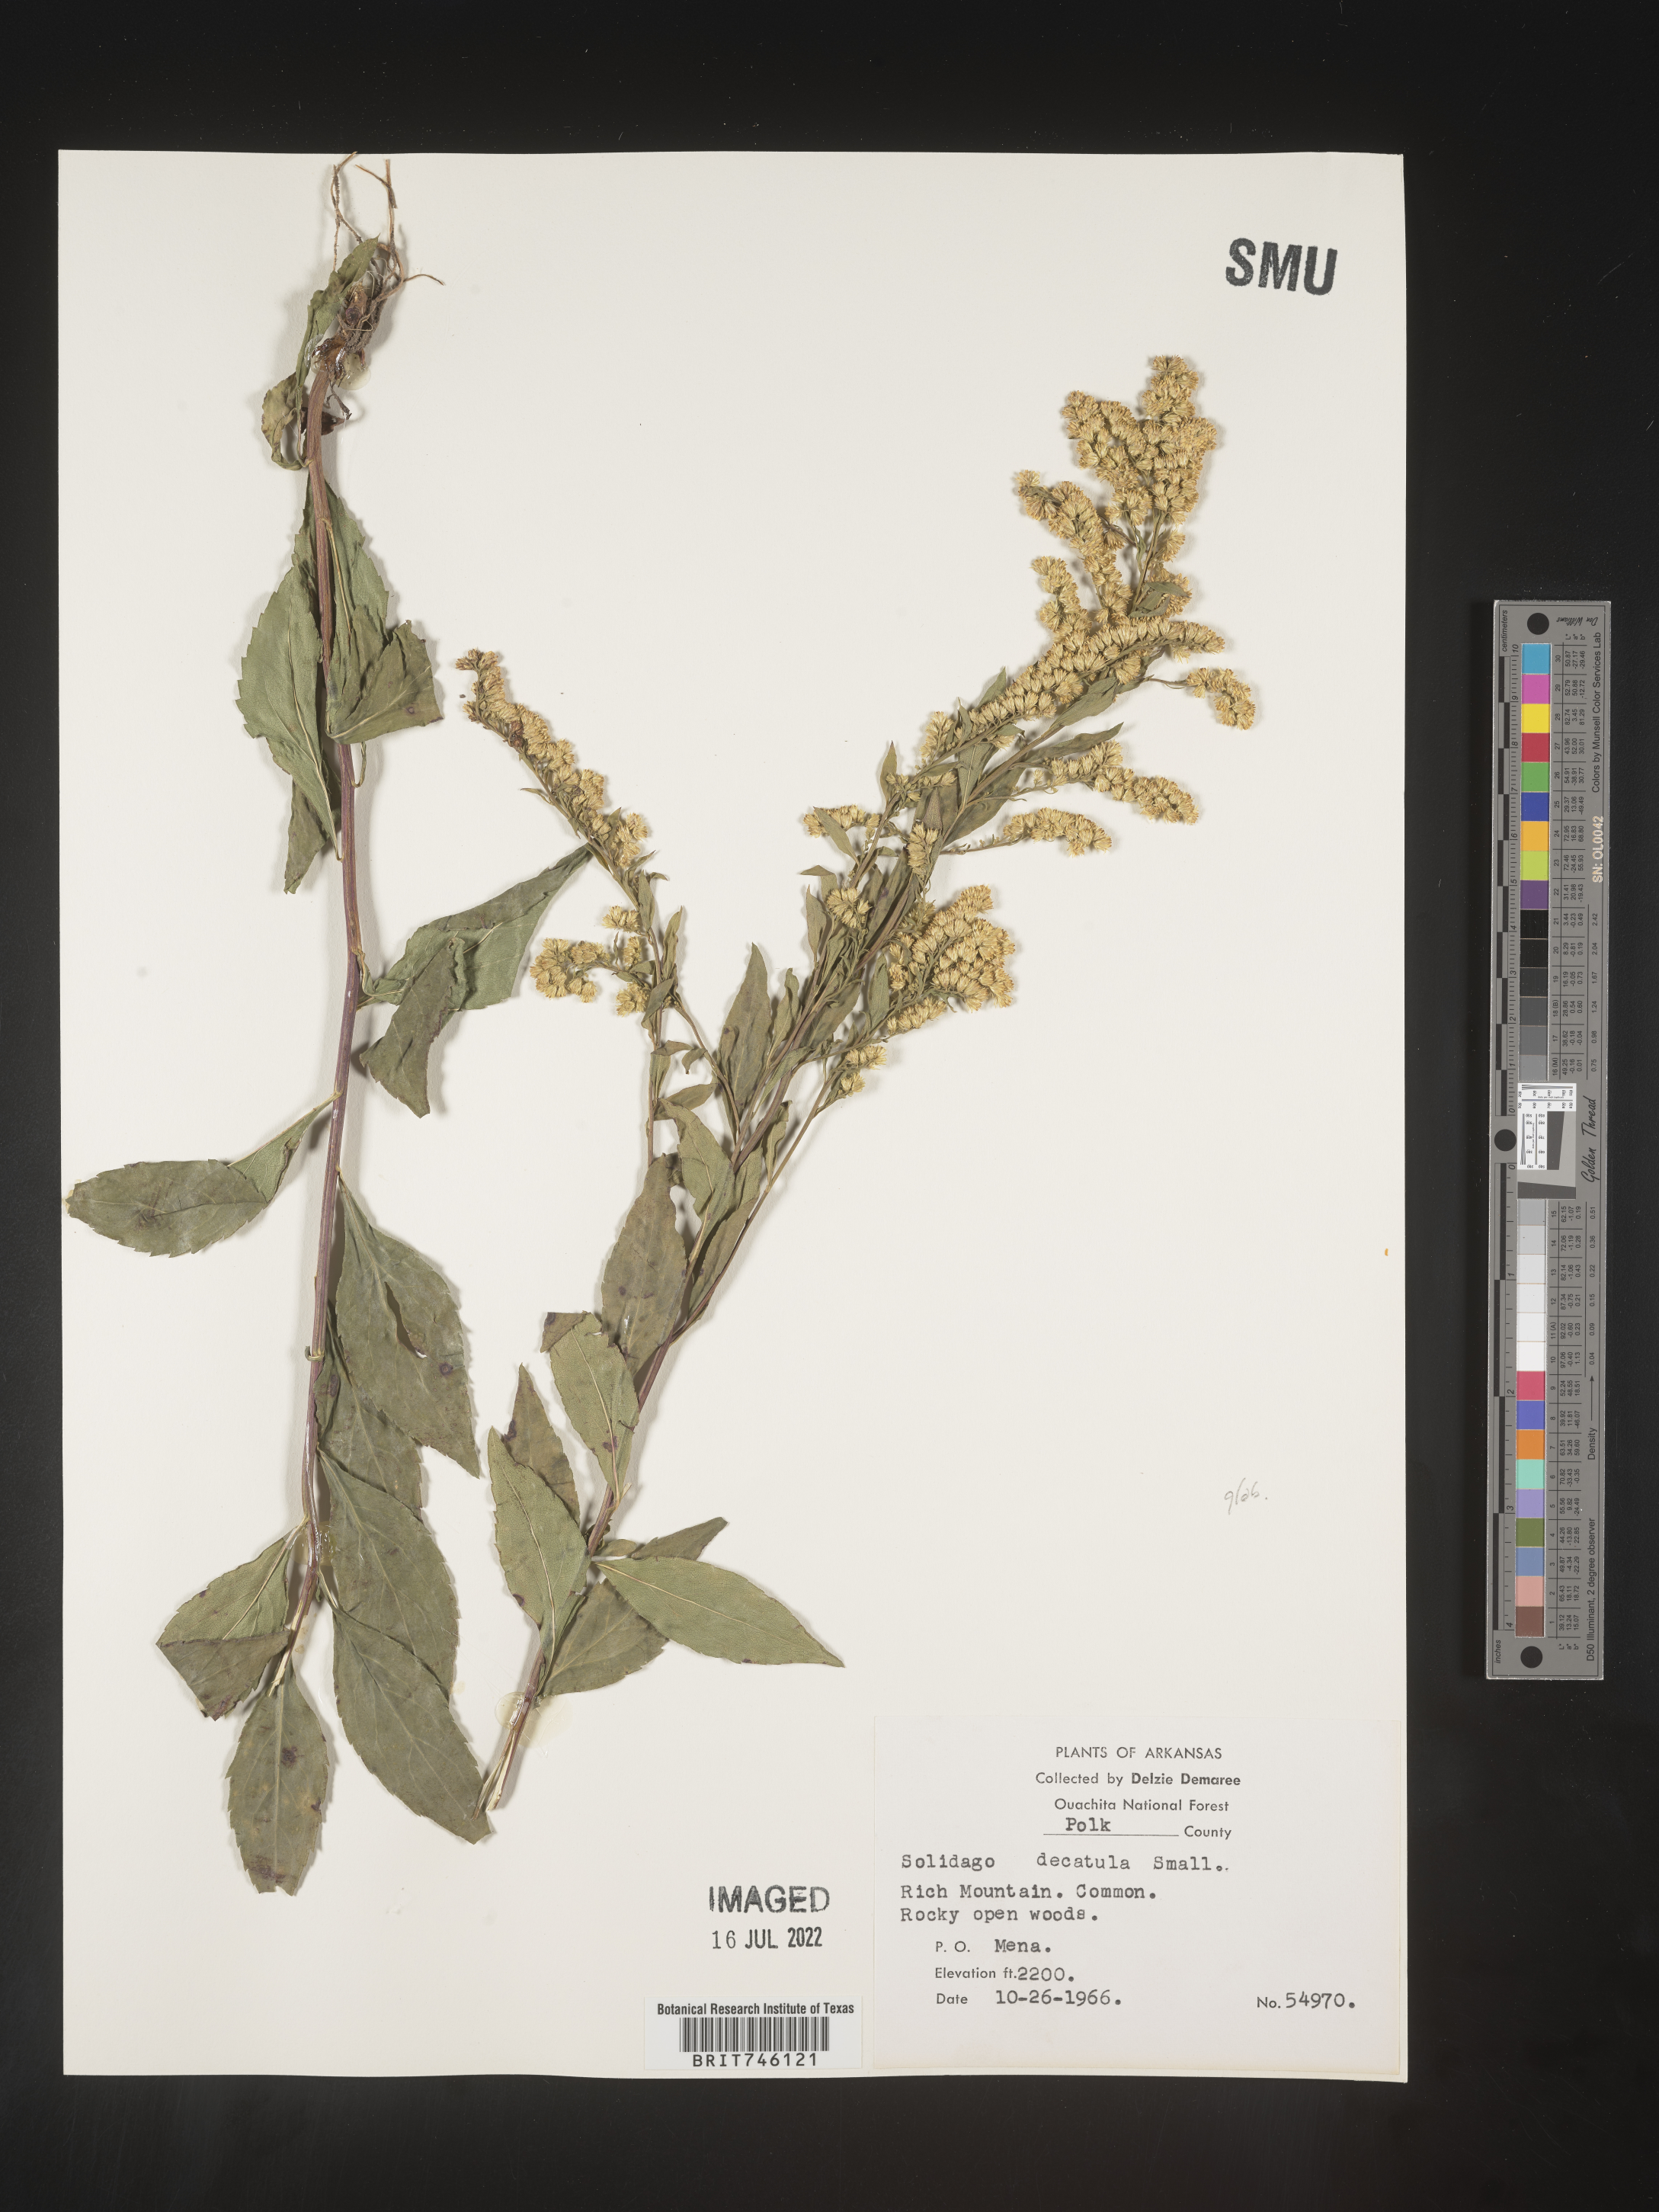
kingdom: Plantae
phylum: Tracheophyta
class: Magnoliopsida
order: Asterales
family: Asteraceae
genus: Solidago
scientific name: Solidago delicatula
